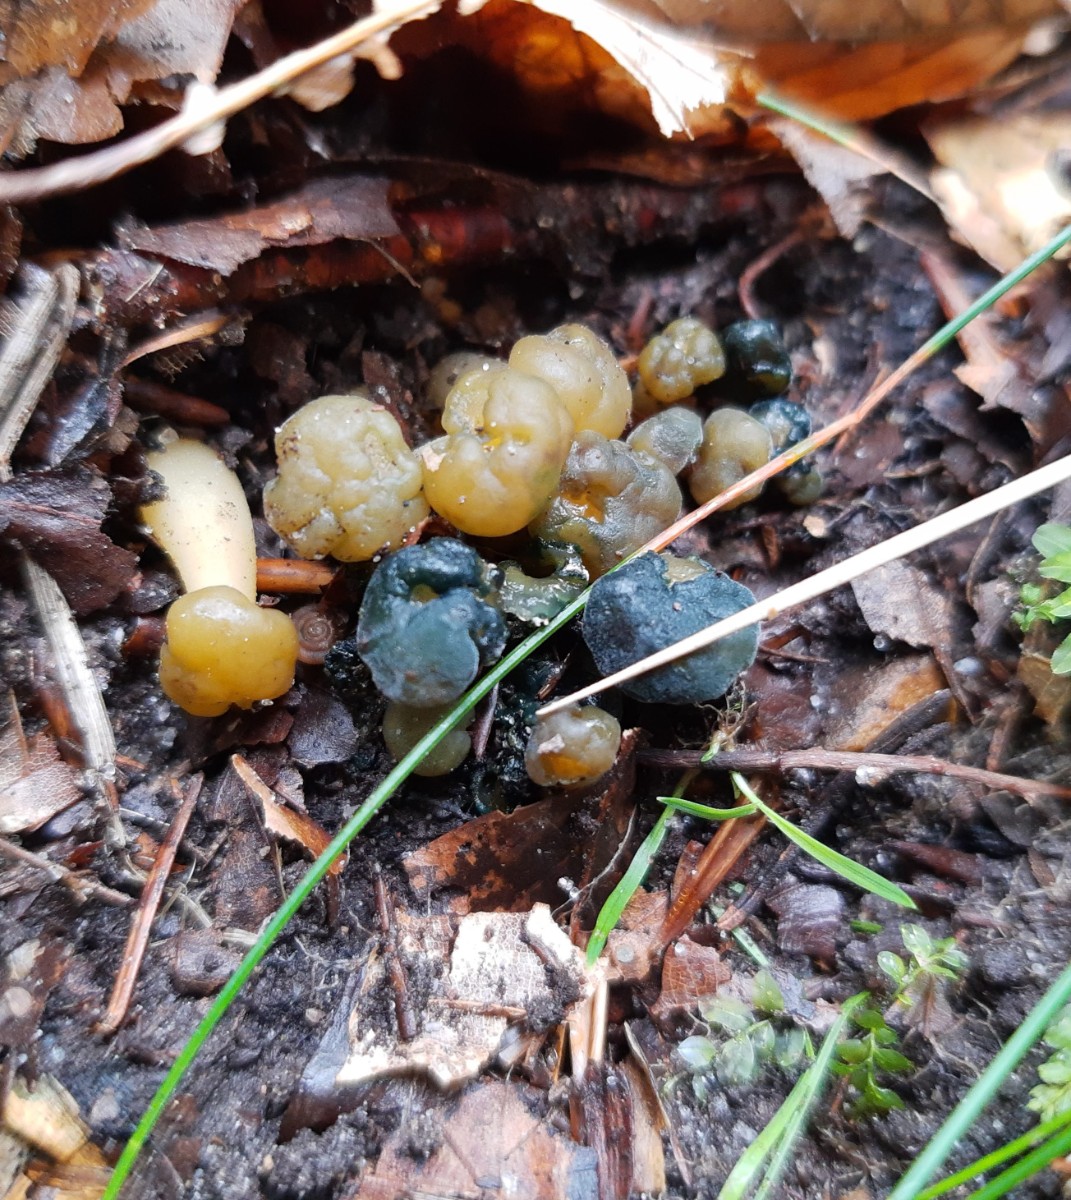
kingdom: Fungi
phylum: Ascomycota
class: Sordariomycetes
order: Hypocreales
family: Hypocreaceae
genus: Hypomyces
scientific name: Hypomyces leotiicola
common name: ravsvamp-snylteskorpe
